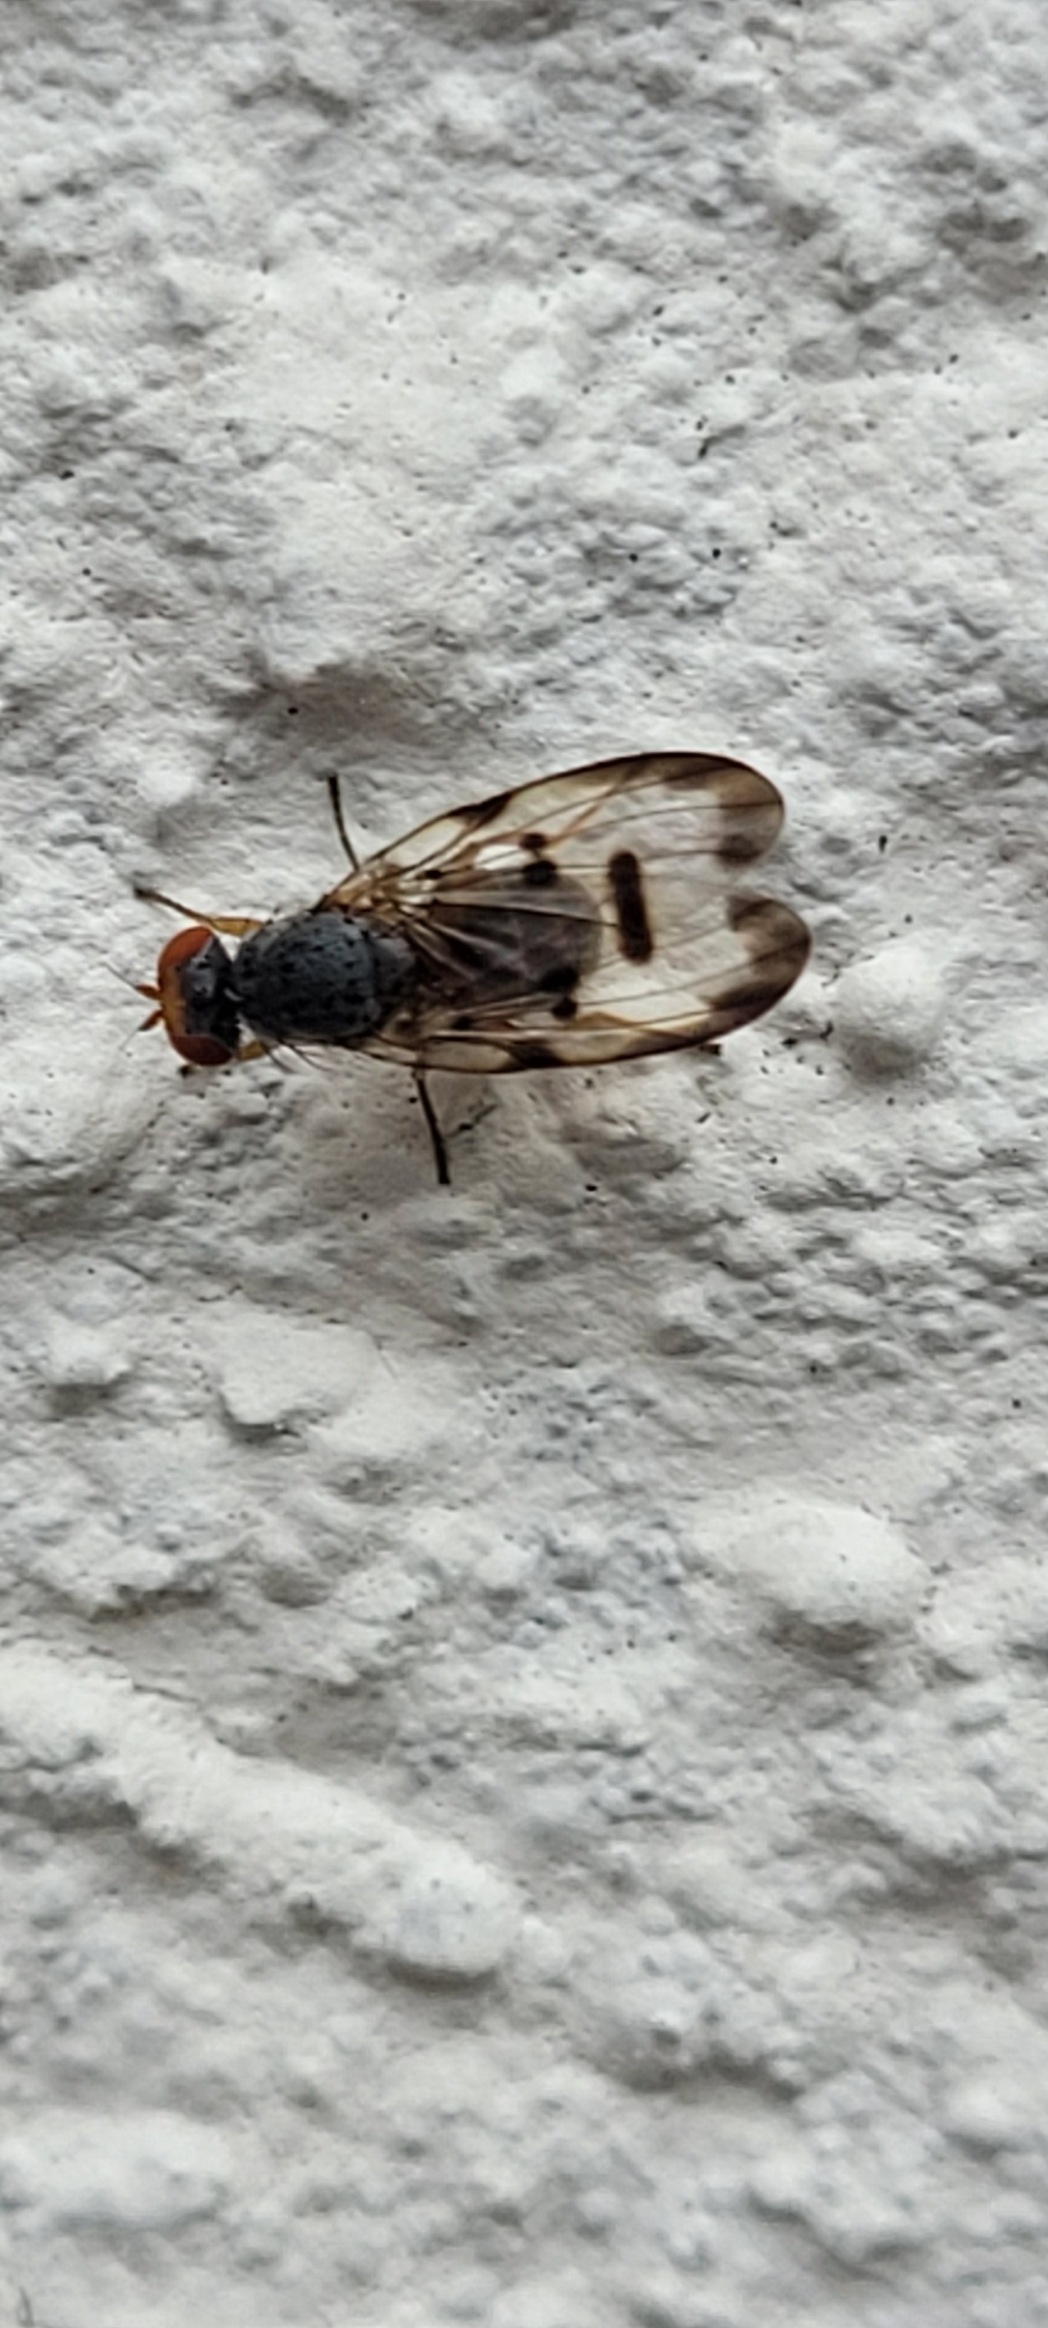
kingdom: Animalia
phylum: Arthropoda
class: Insecta
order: Diptera
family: Pallopteridae
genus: Palloptera
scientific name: Palloptera umbellatarum
